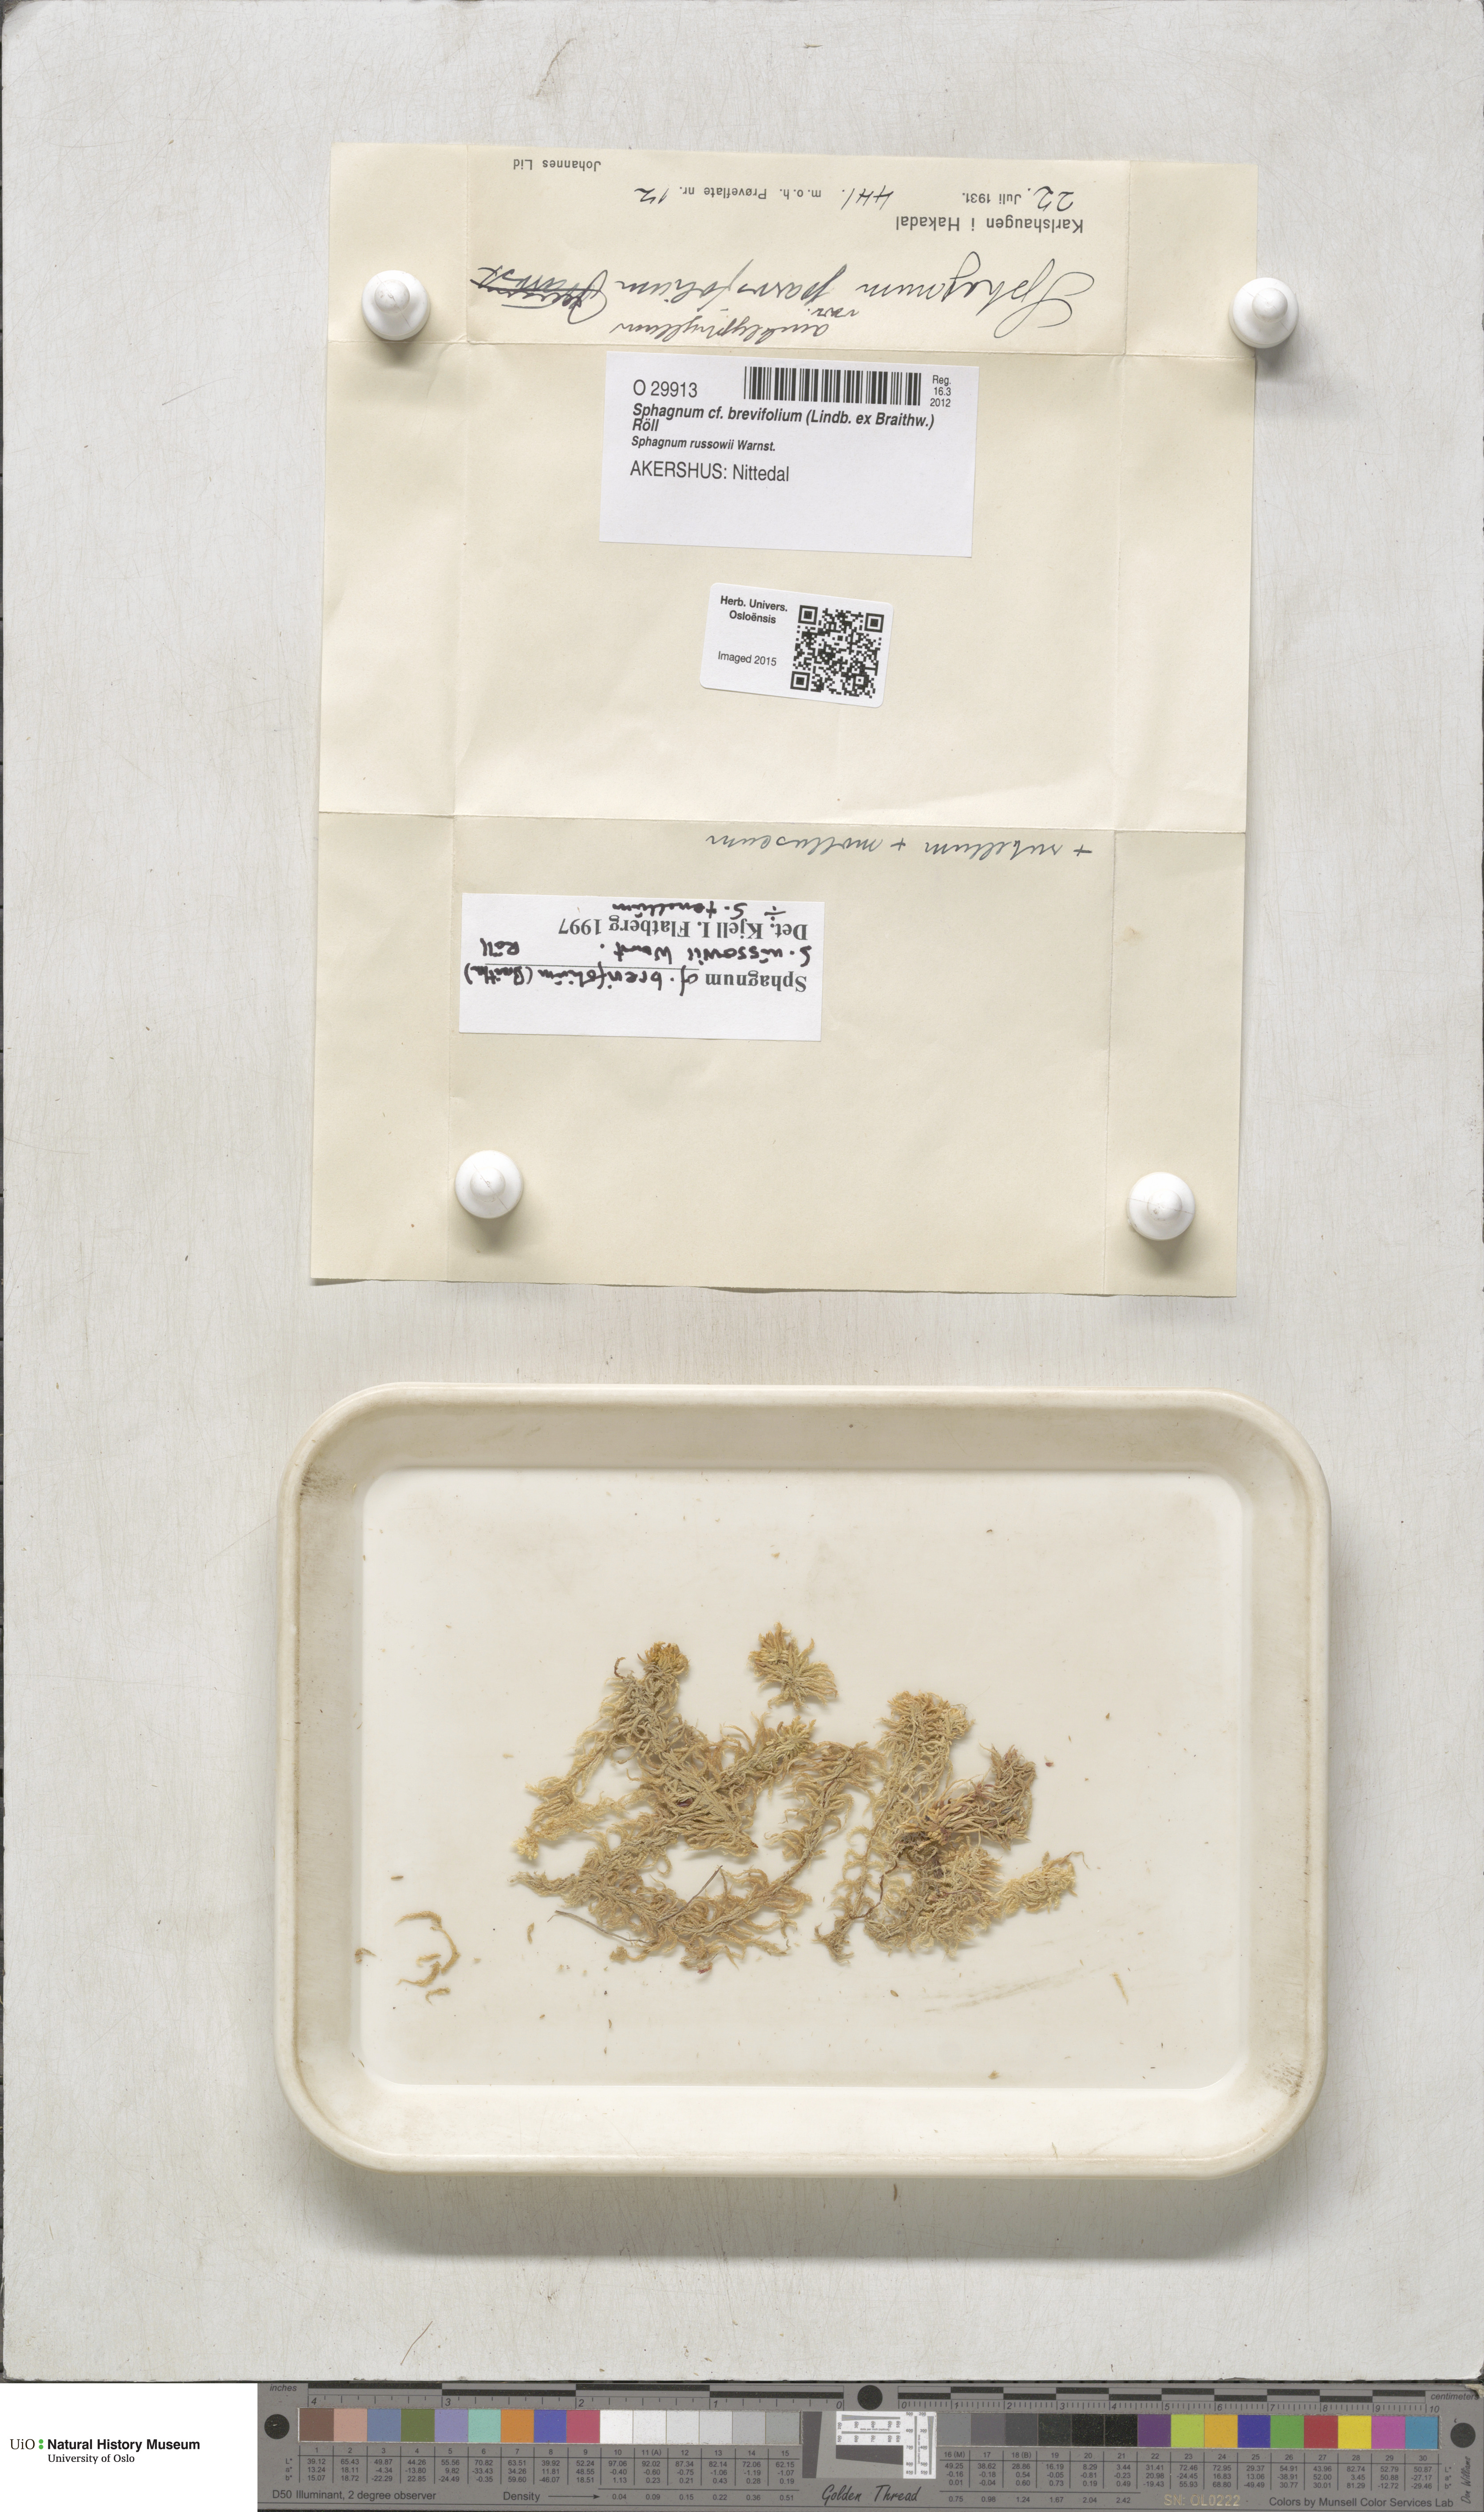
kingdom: Plantae
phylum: Bryophyta
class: Sphagnopsida
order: Sphagnales
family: Sphagnaceae
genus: Sphagnum
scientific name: Sphagnum fallax
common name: Flat-top peat moss
